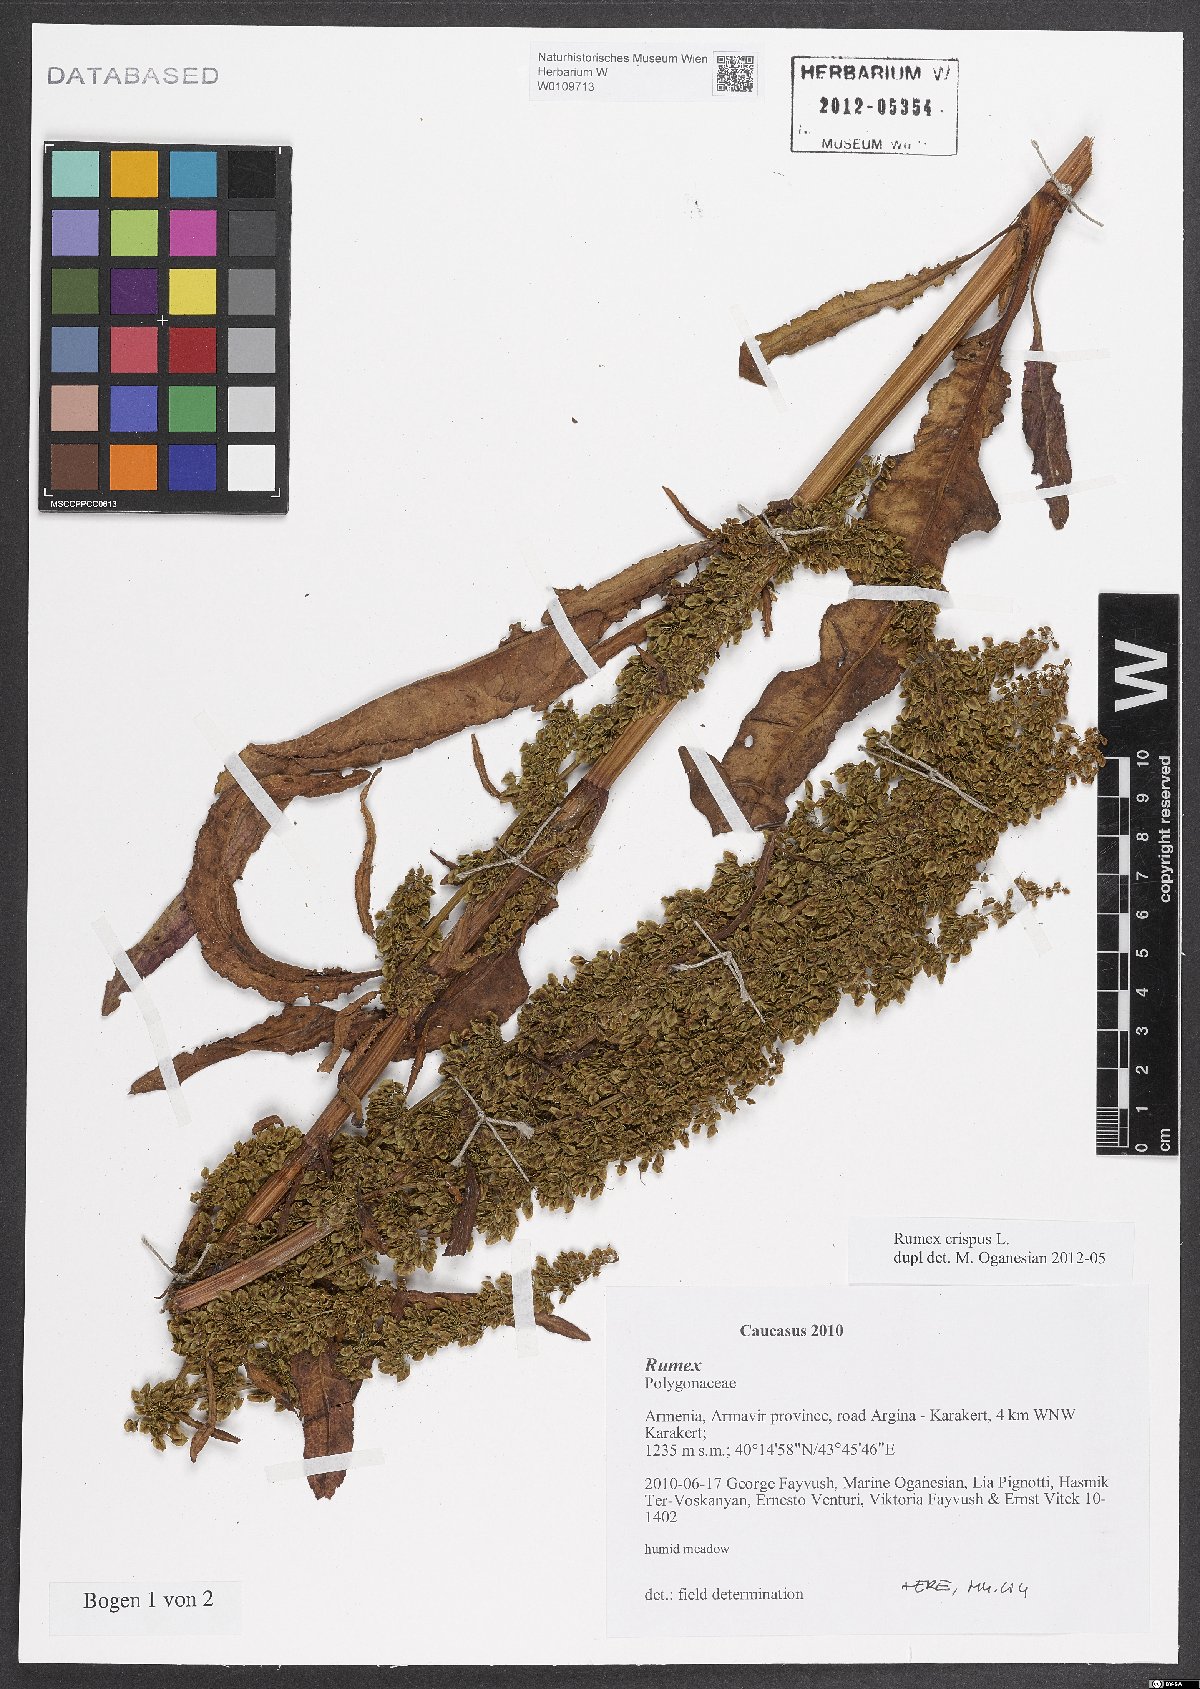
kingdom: Plantae
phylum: Tracheophyta
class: Magnoliopsida
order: Caryophyllales
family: Polygonaceae
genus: Rumex
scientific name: Rumex crispus
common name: Curled dock
